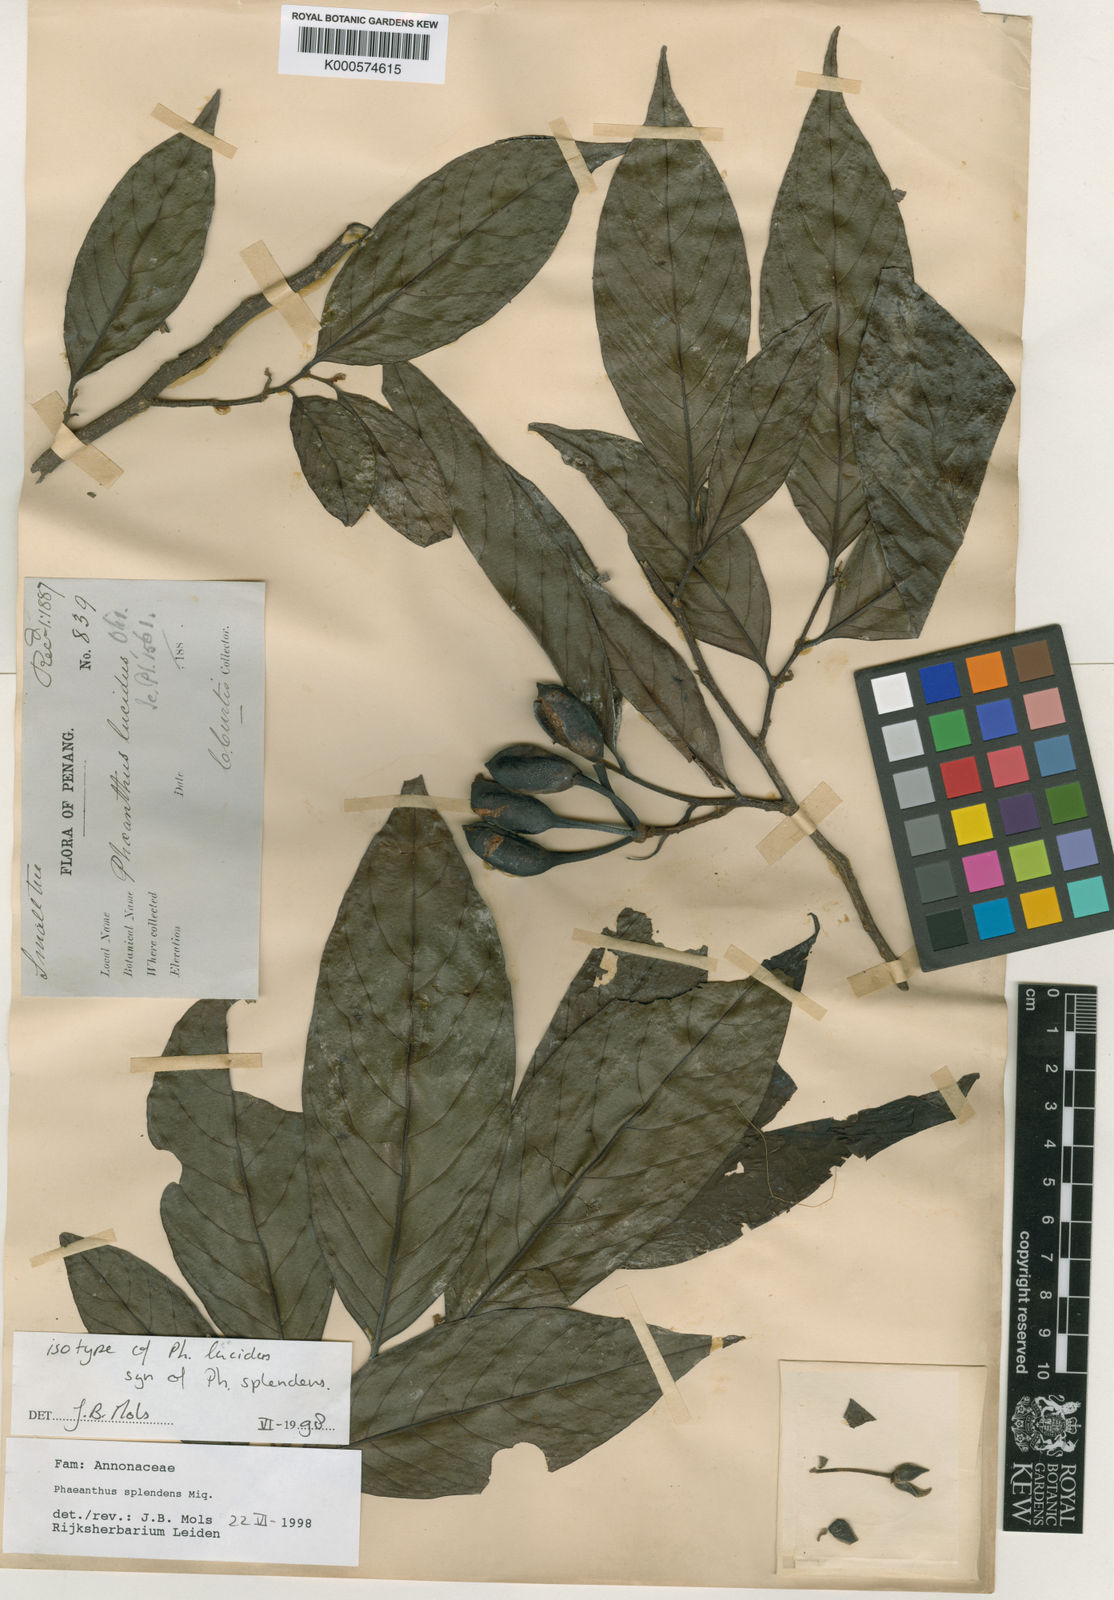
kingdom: Plantae
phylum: Tracheophyta
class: Magnoliopsida
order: Magnoliales
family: Annonaceae
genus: Phaeanthus
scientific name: Phaeanthus splendens
